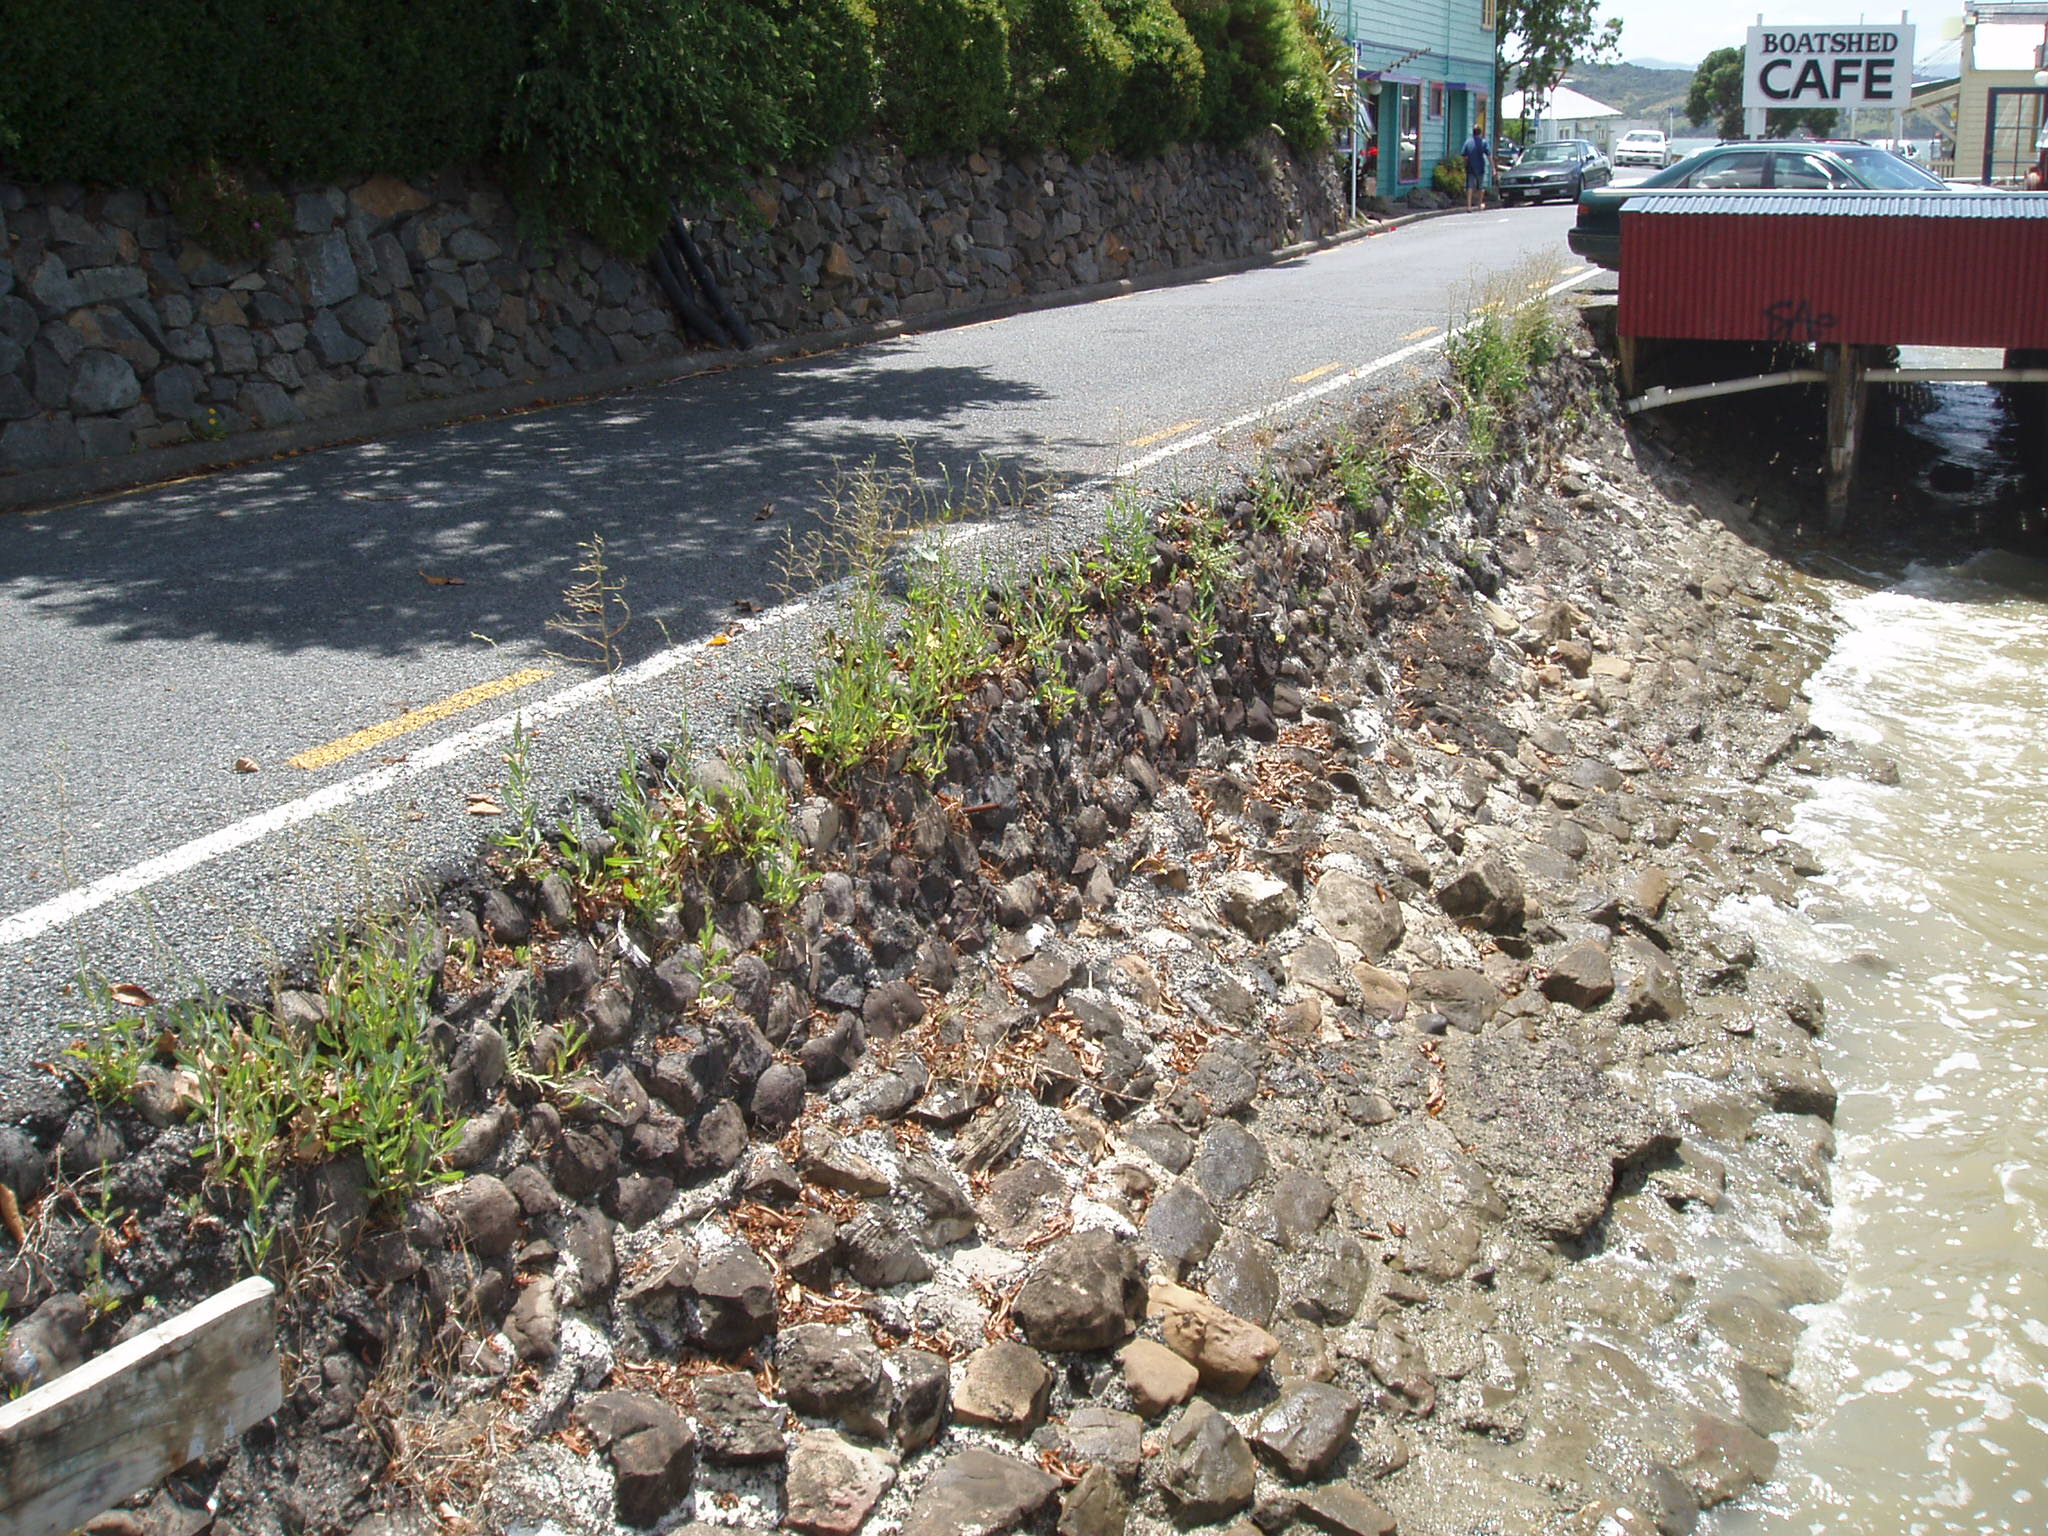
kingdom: Plantae
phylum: Tracheophyta
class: Magnoliopsida
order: Asterales
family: Asteraceae
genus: Lactuca
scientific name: Lactuca serriola
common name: Prickly lettuce
